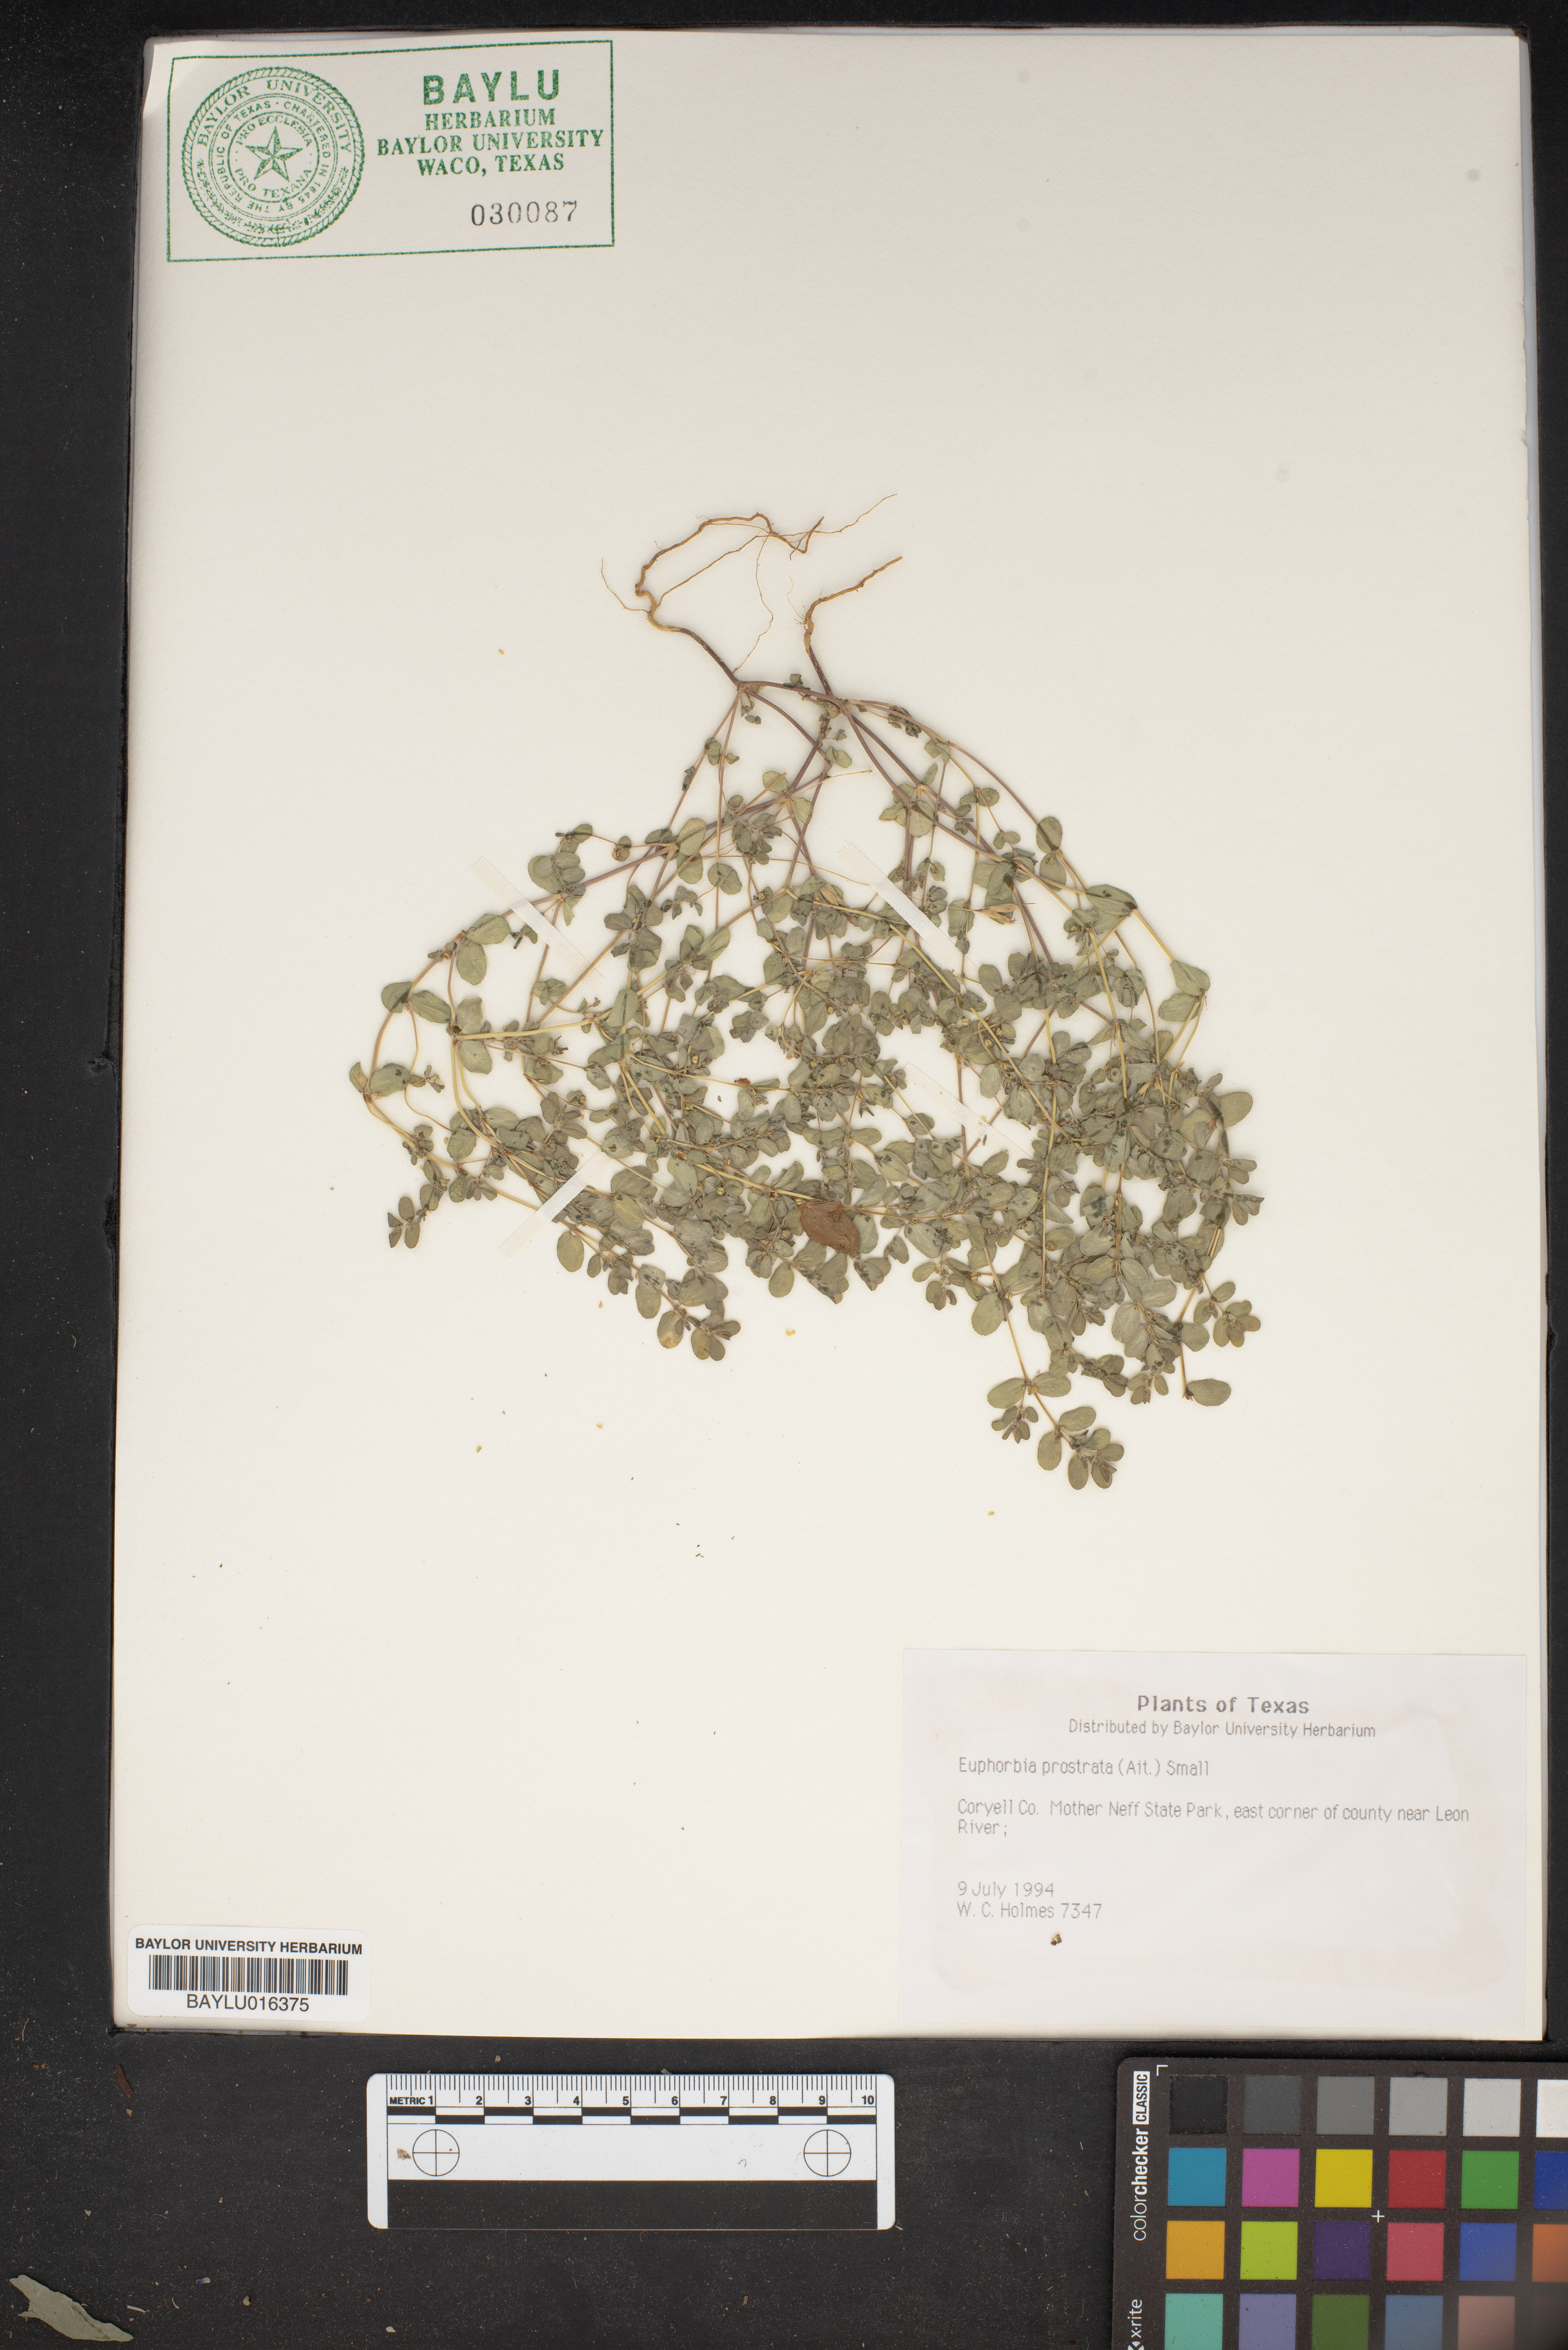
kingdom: Plantae
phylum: Tracheophyta
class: Magnoliopsida
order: Malpighiales
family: Euphorbiaceae
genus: Euphorbia
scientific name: Euphorbia prostrata
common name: Prostrate sandmat
